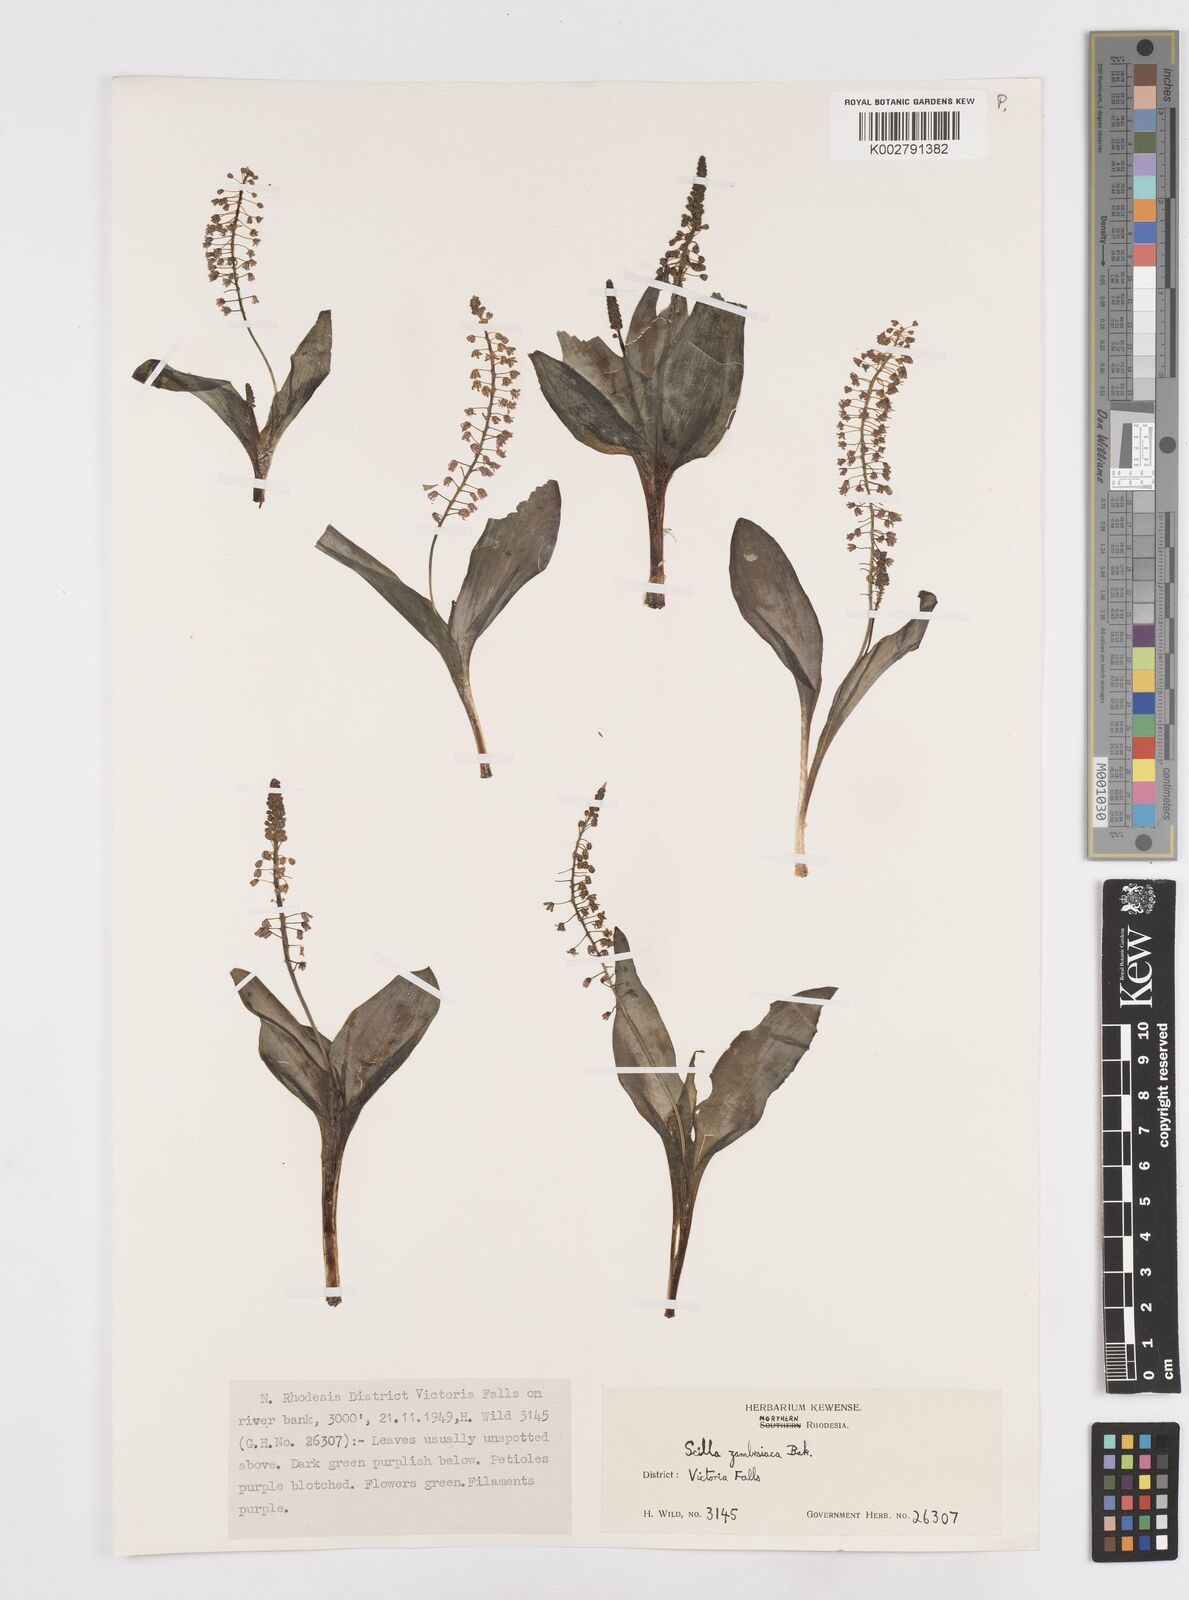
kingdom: Plantae
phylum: Tracheophyta
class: Liliopsida
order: Asparagales
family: Asparagaceae
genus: Ledebouria
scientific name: Ledebouria zambesiaca
